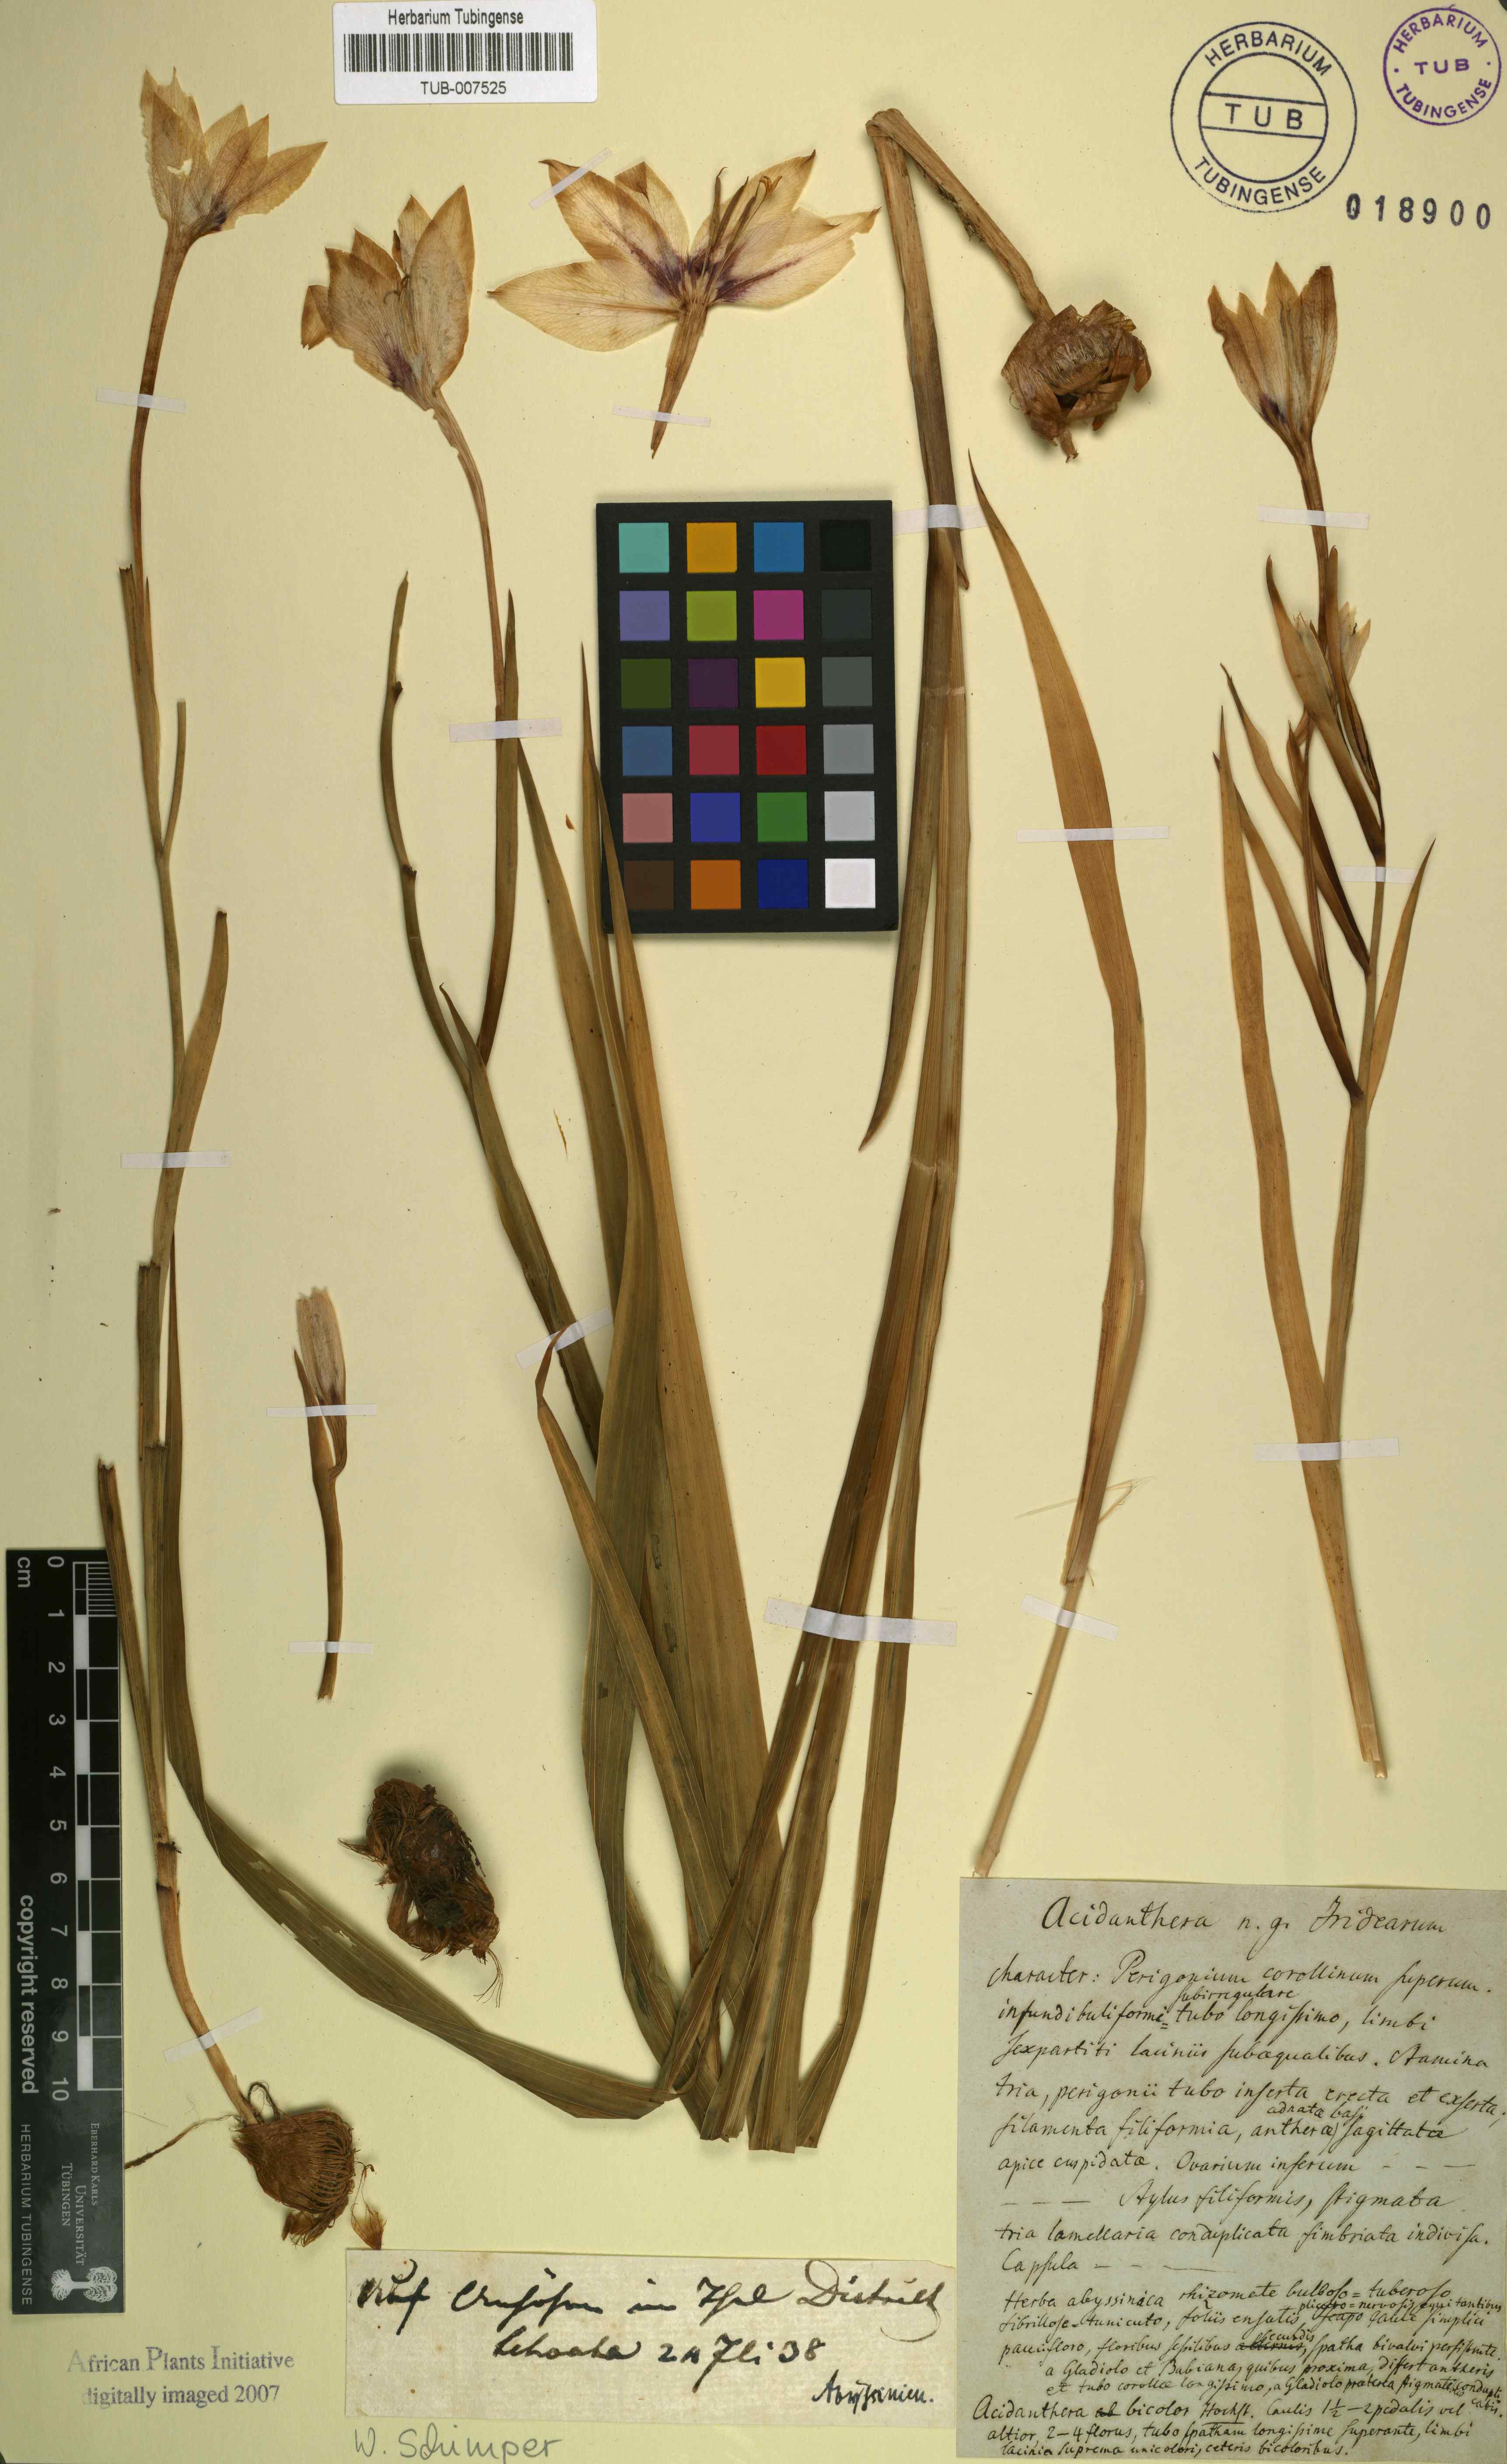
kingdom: Plantae
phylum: Tracheophyta
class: Liliopsida
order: Asparagales
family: Iridaceae
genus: Gladiolus
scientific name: Gladiolus
